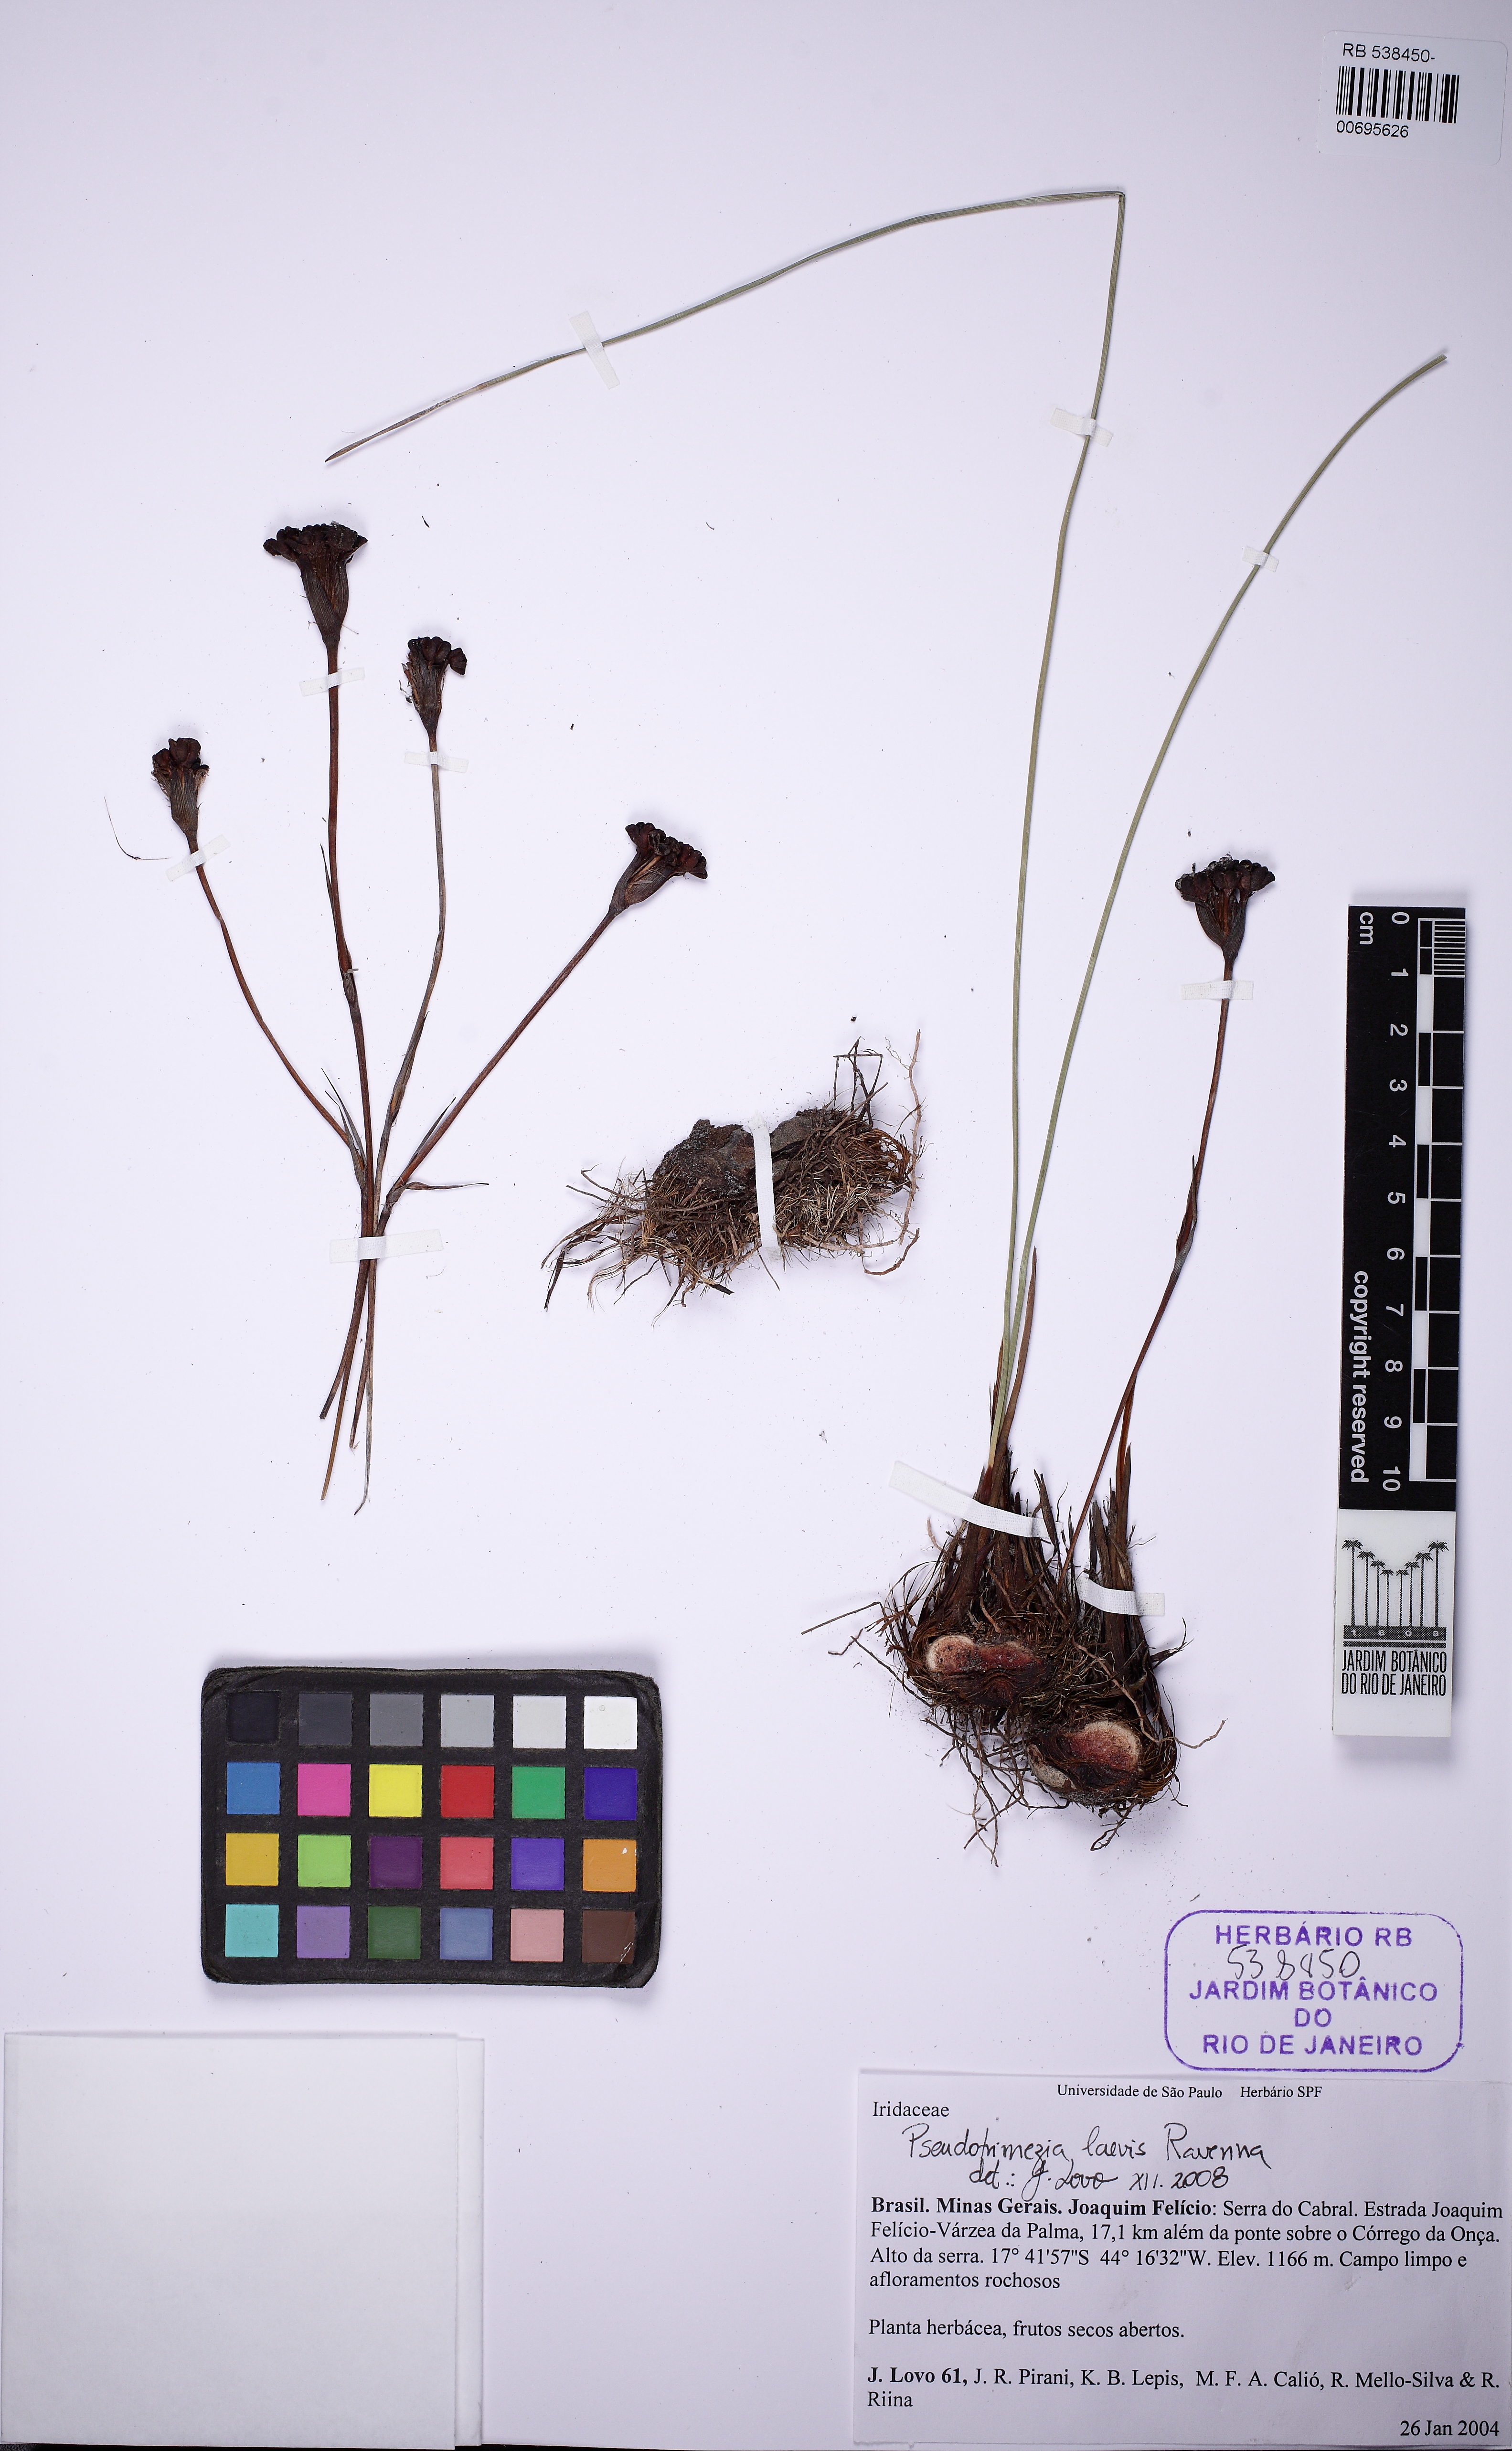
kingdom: Plantae
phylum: Tracheophyta
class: Liliopsida
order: Asparagales
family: Iridaceae
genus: Trimezia
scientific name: Trimezia laevis
